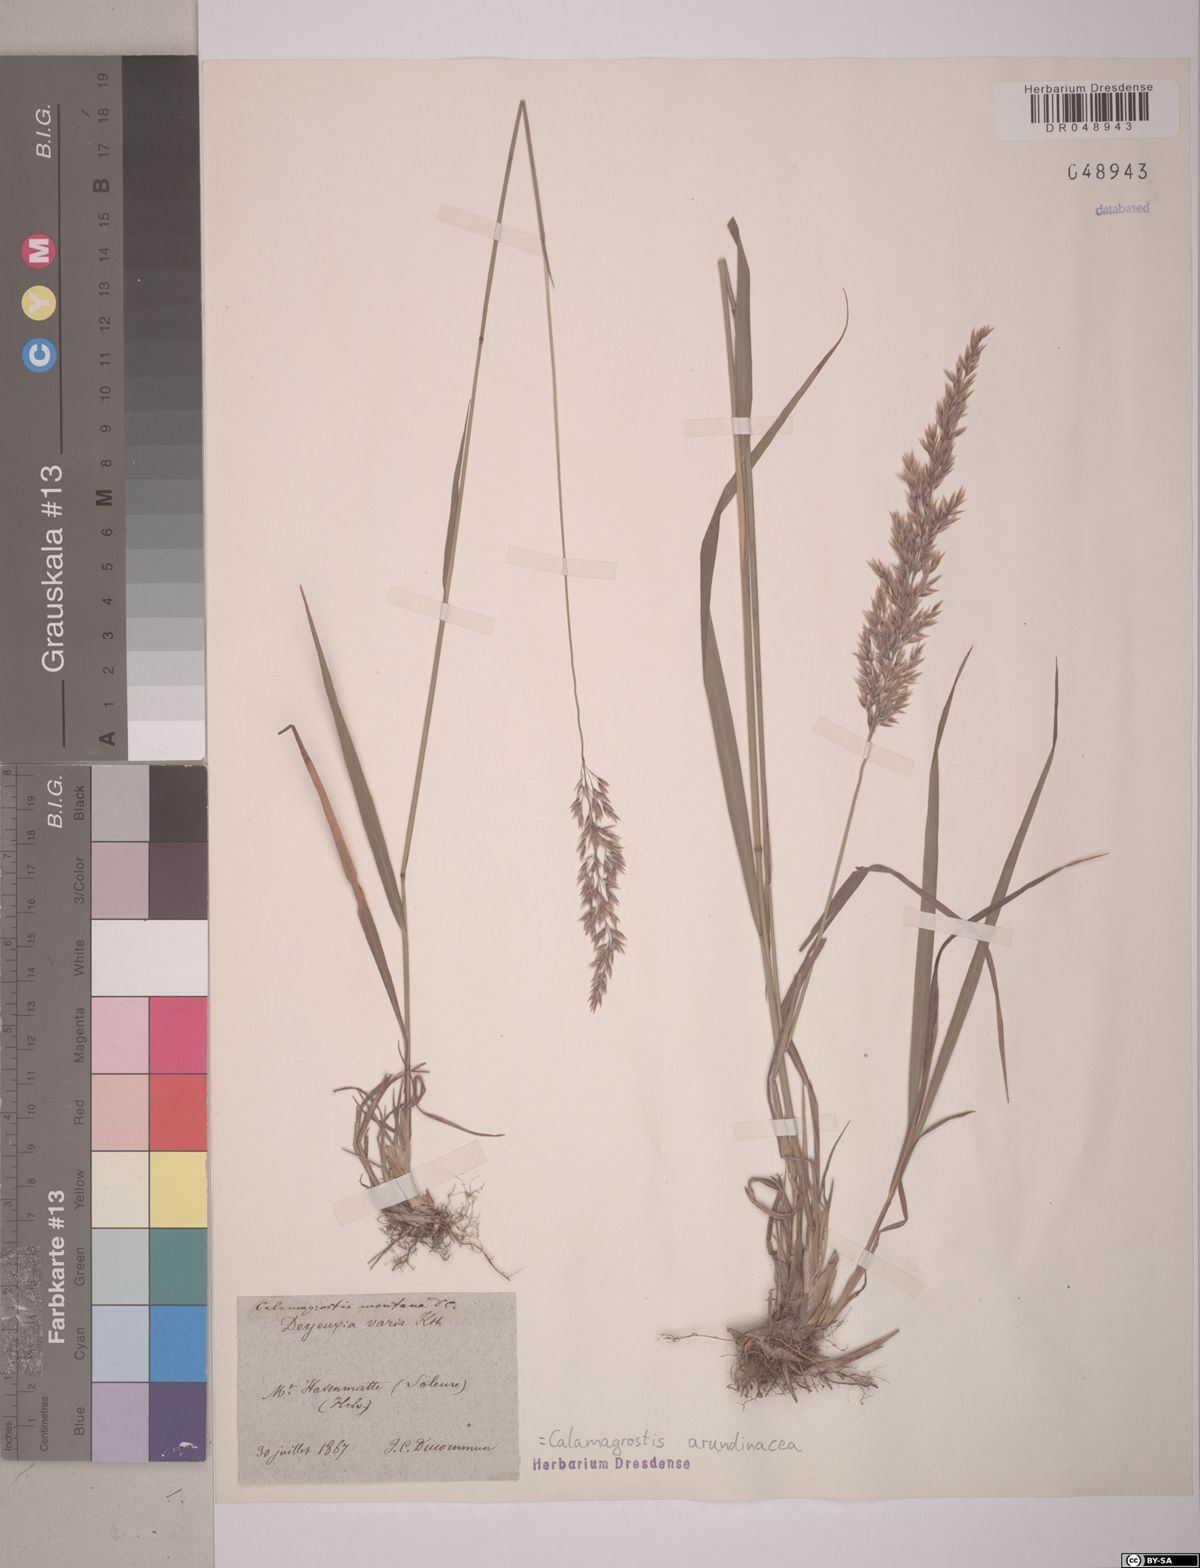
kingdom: Plantae
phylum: Tracheophyta
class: Liliopsida
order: Poales
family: Poaceae
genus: Calamagrostis
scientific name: Calamagrostis arundinacea
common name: Metskastik
